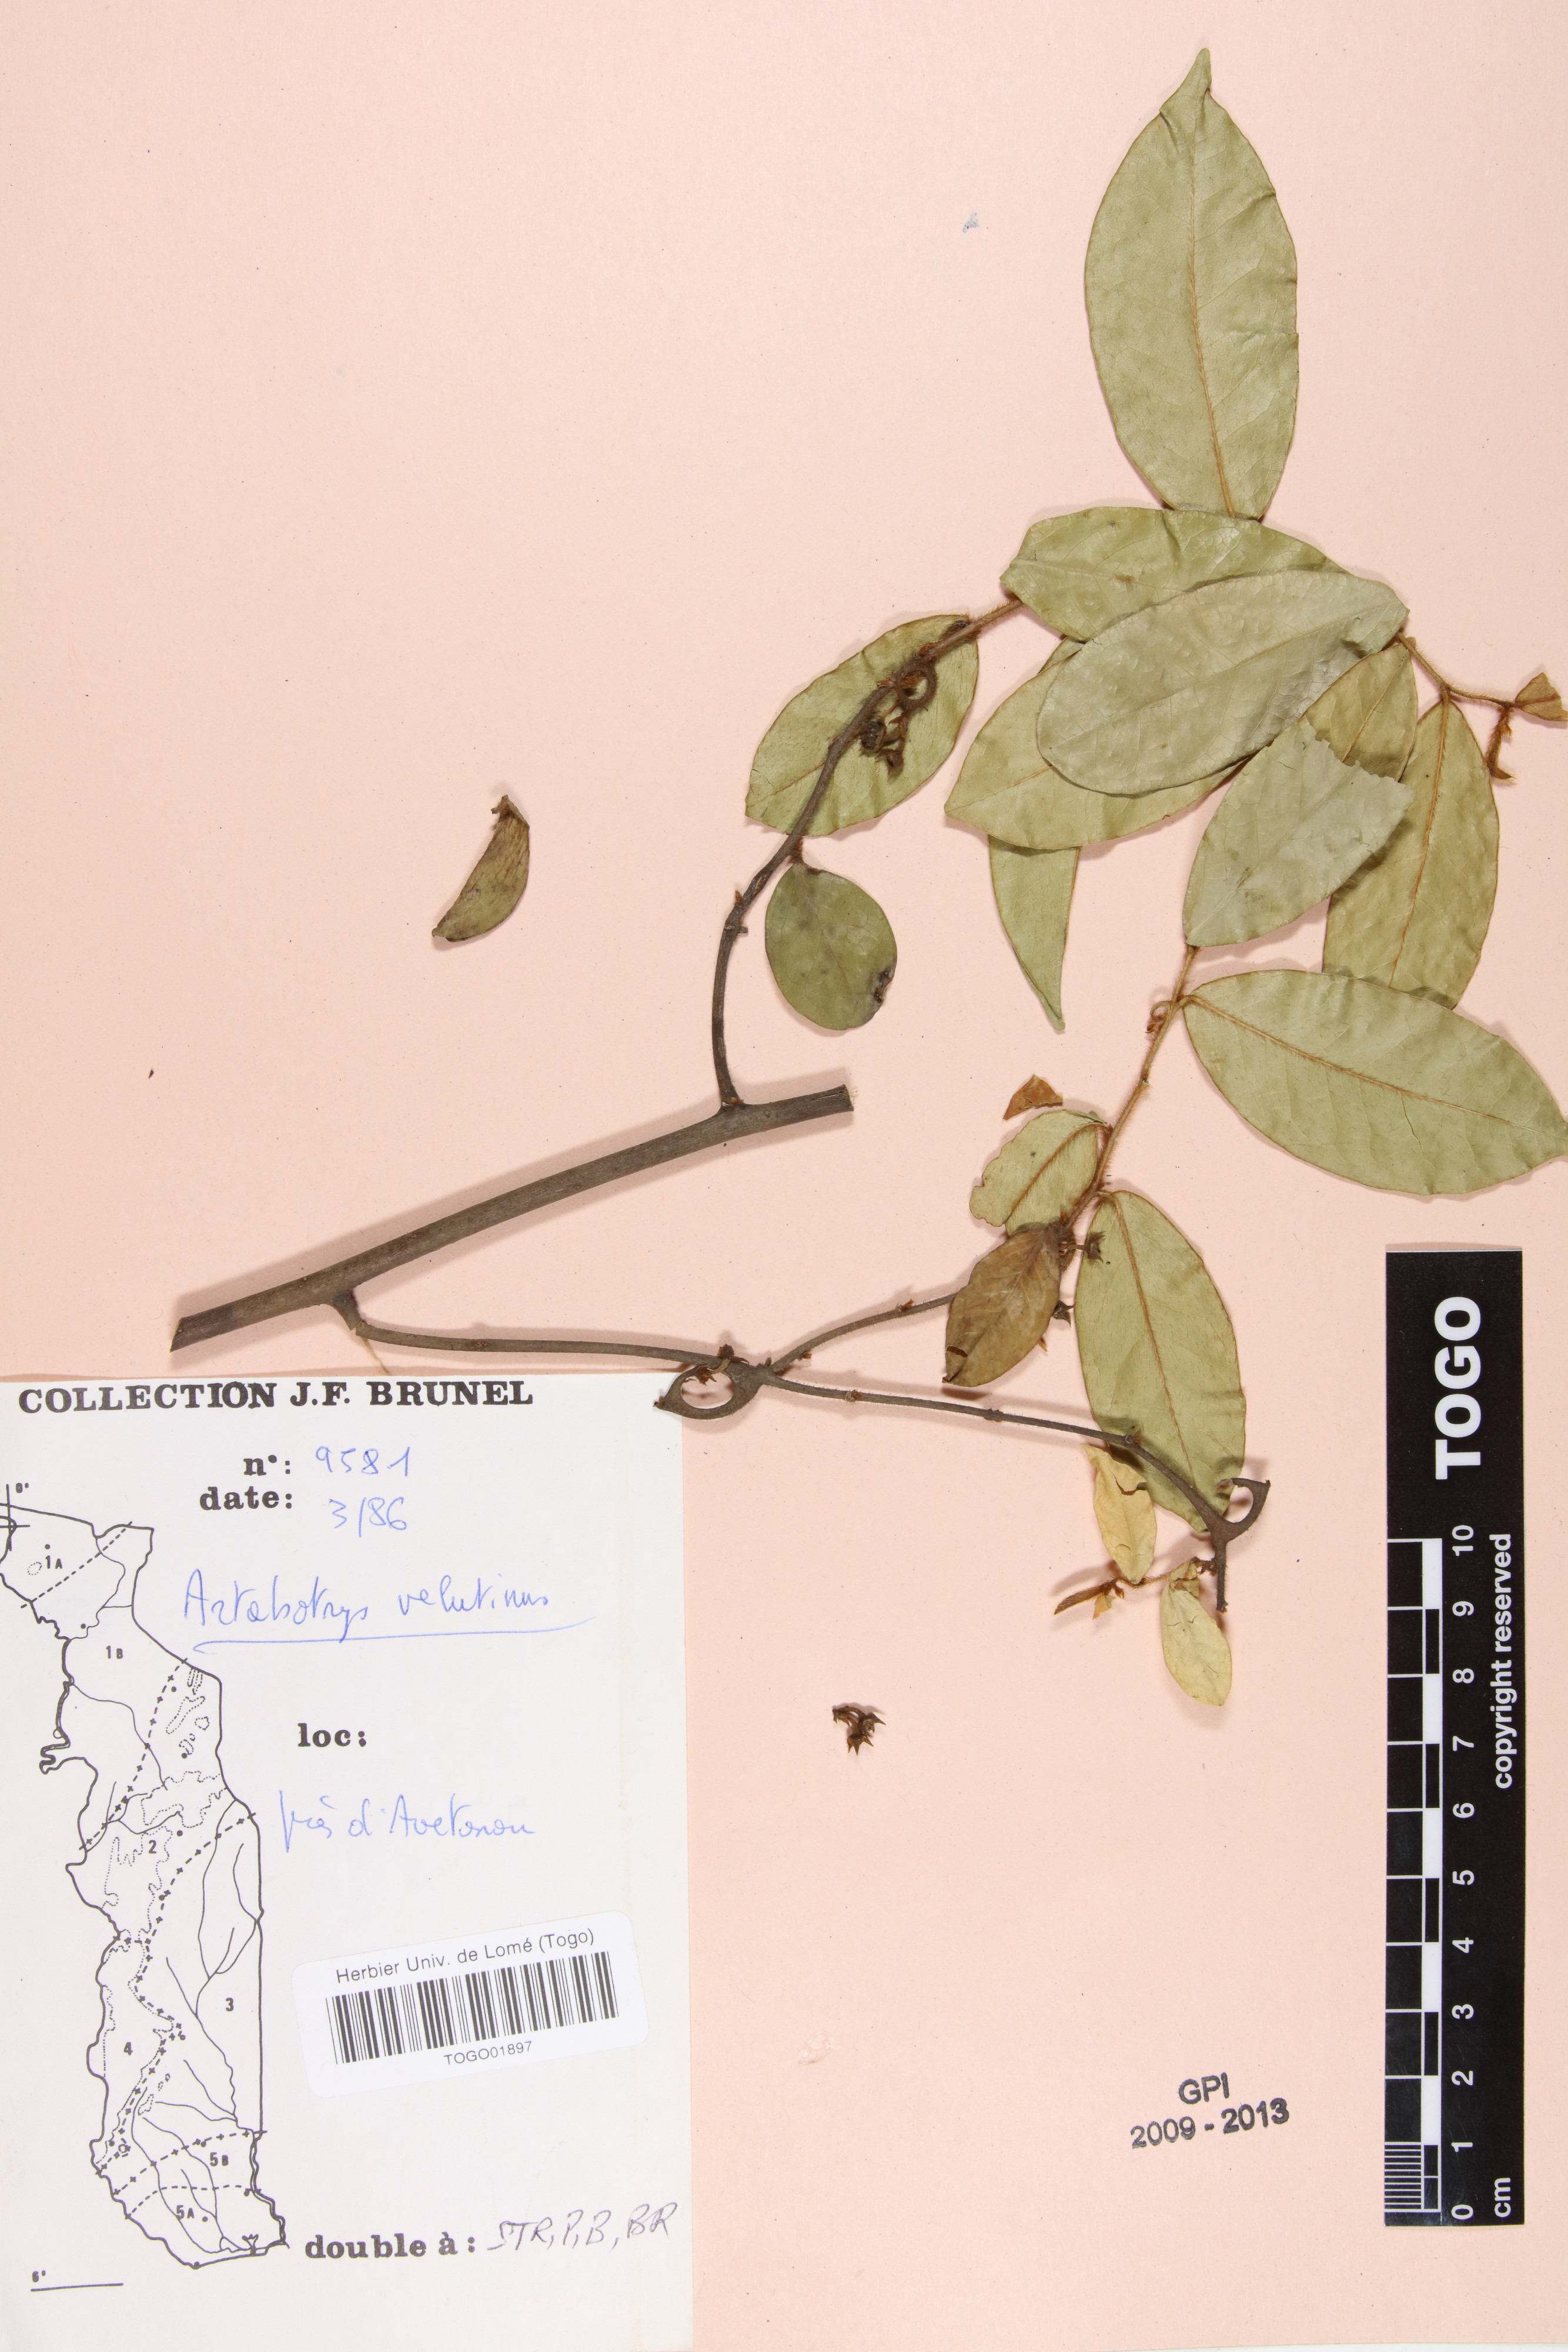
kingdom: Plantae
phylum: Tracheophyta
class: Magnoliopsida
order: Magnoliales
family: Annonaceae
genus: Artabotrys
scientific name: Artabotrys velutinus
